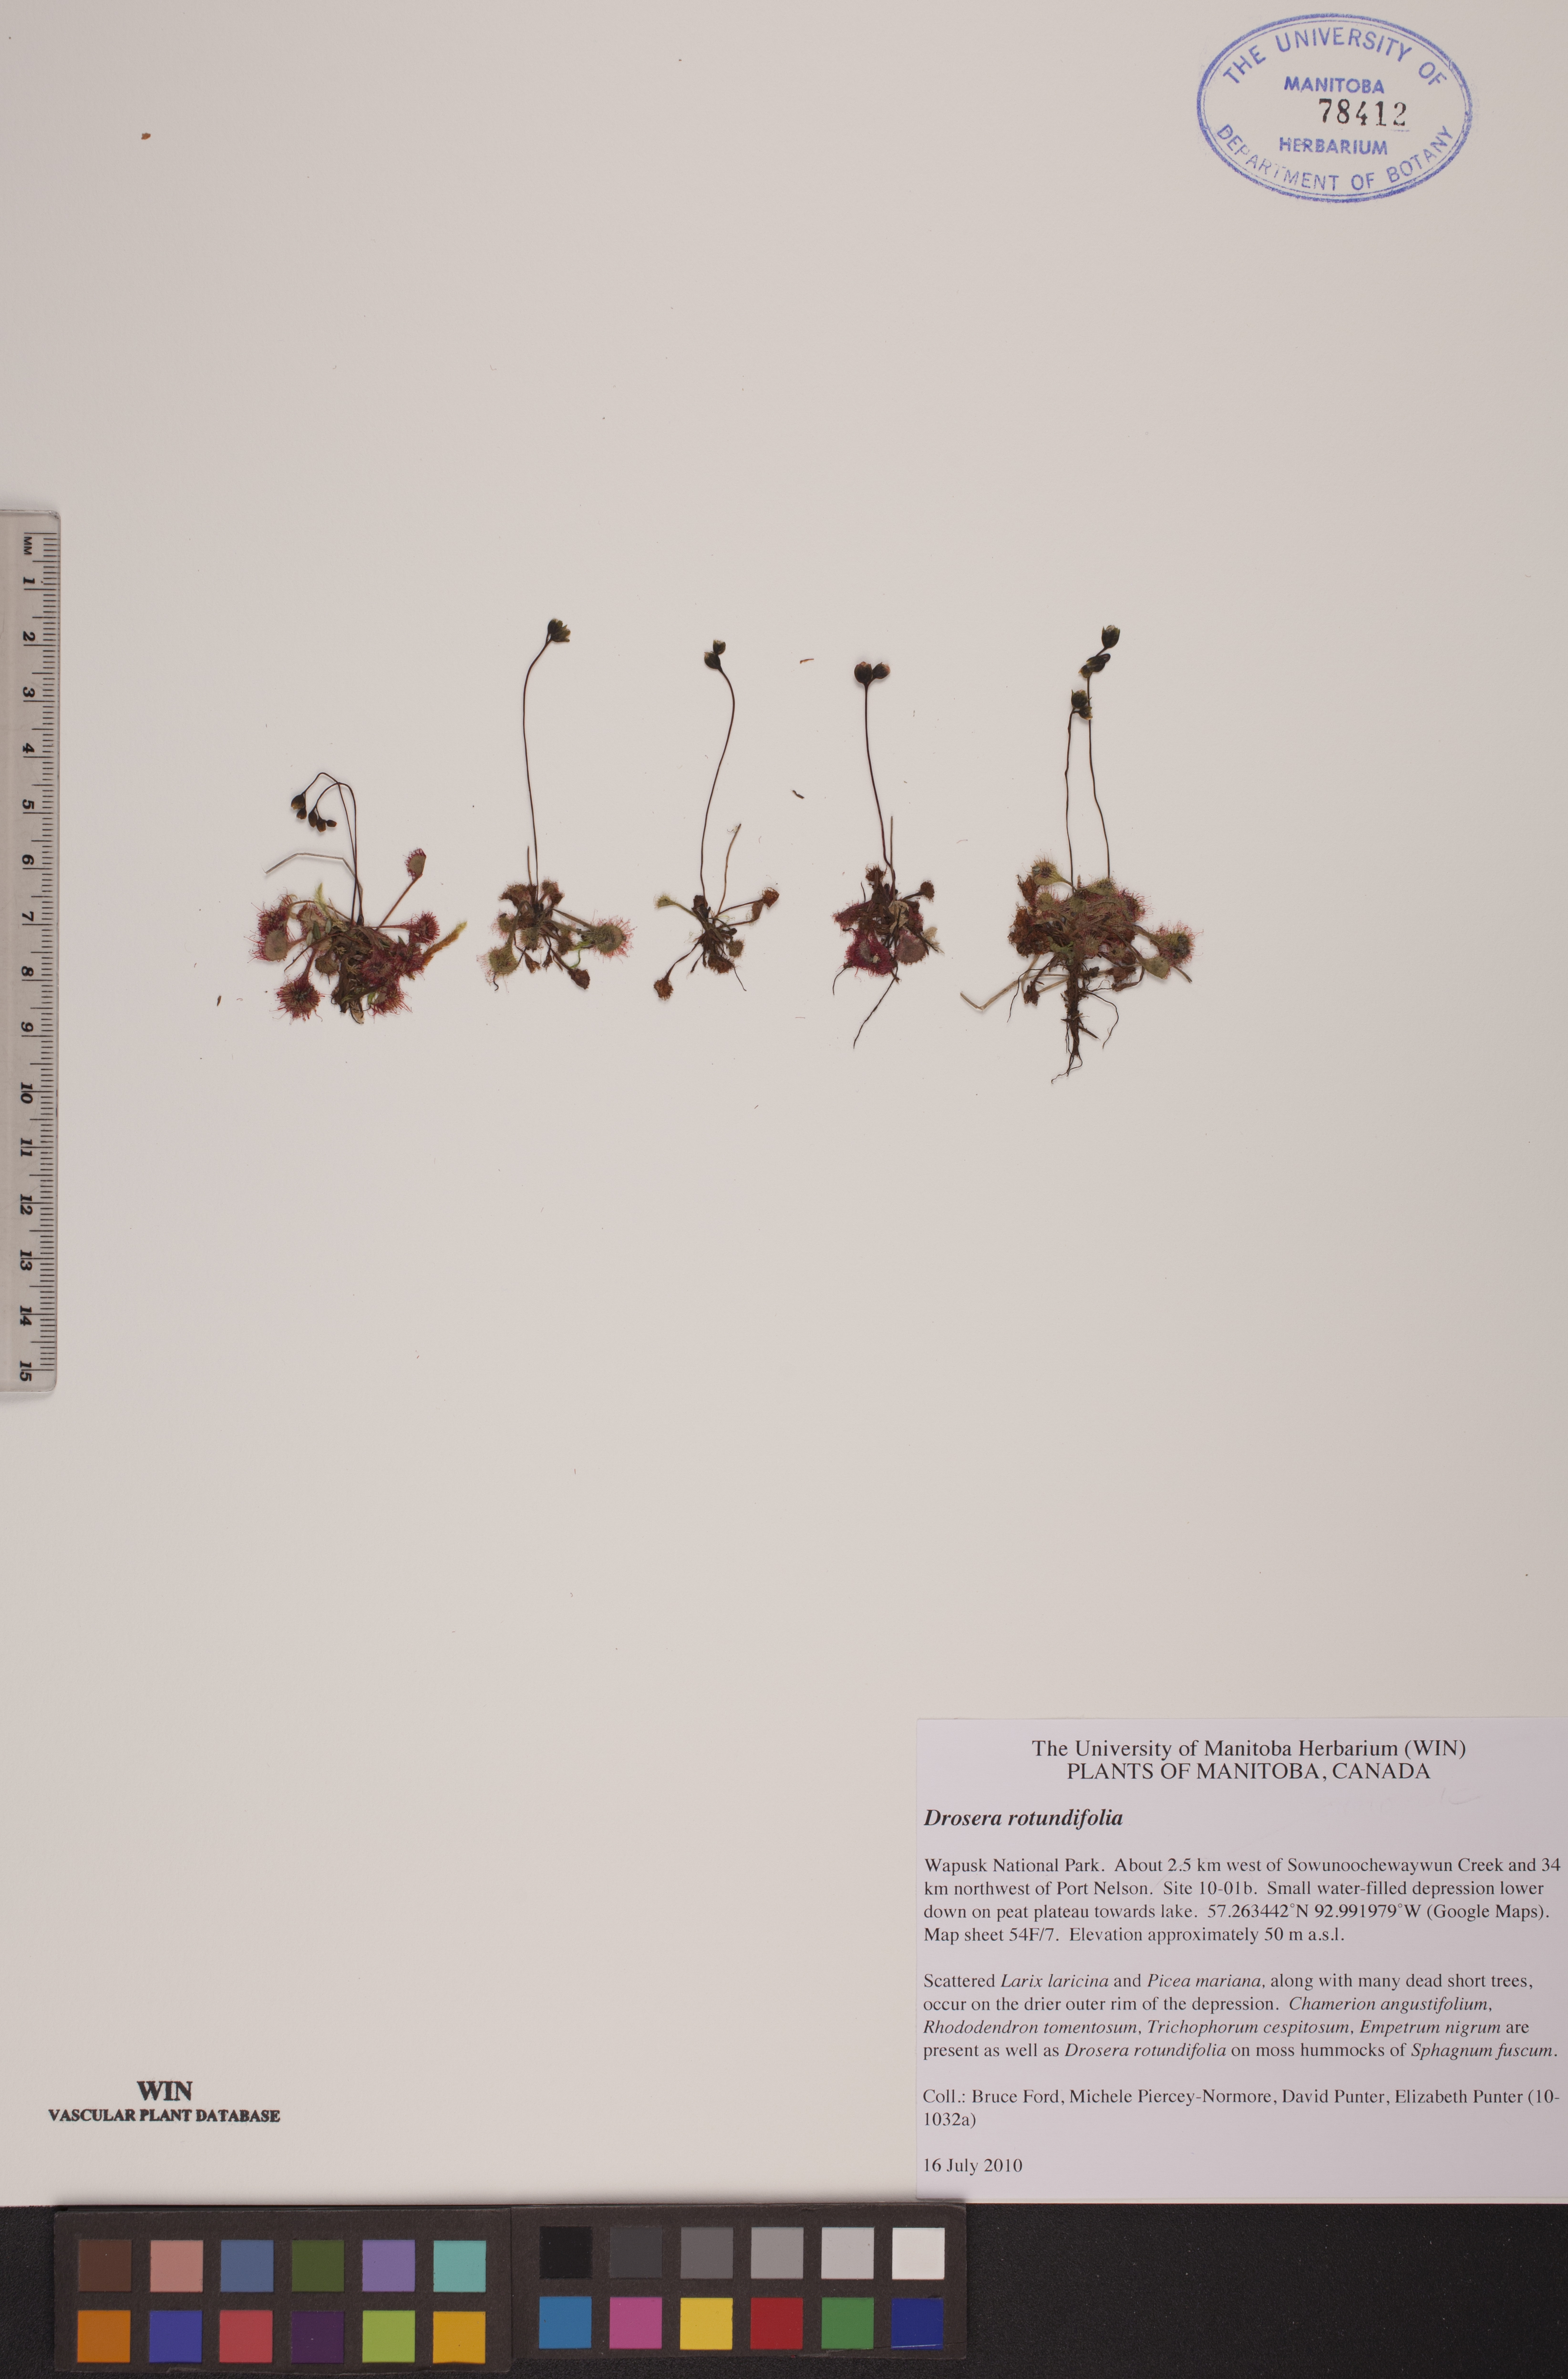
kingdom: Plantae
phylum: Tracheophyta
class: Magnoliopsida
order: Caryophyllales
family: Droseraceae
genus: Drosera
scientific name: Drosera rotundifolia
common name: Round-leaved sundew
